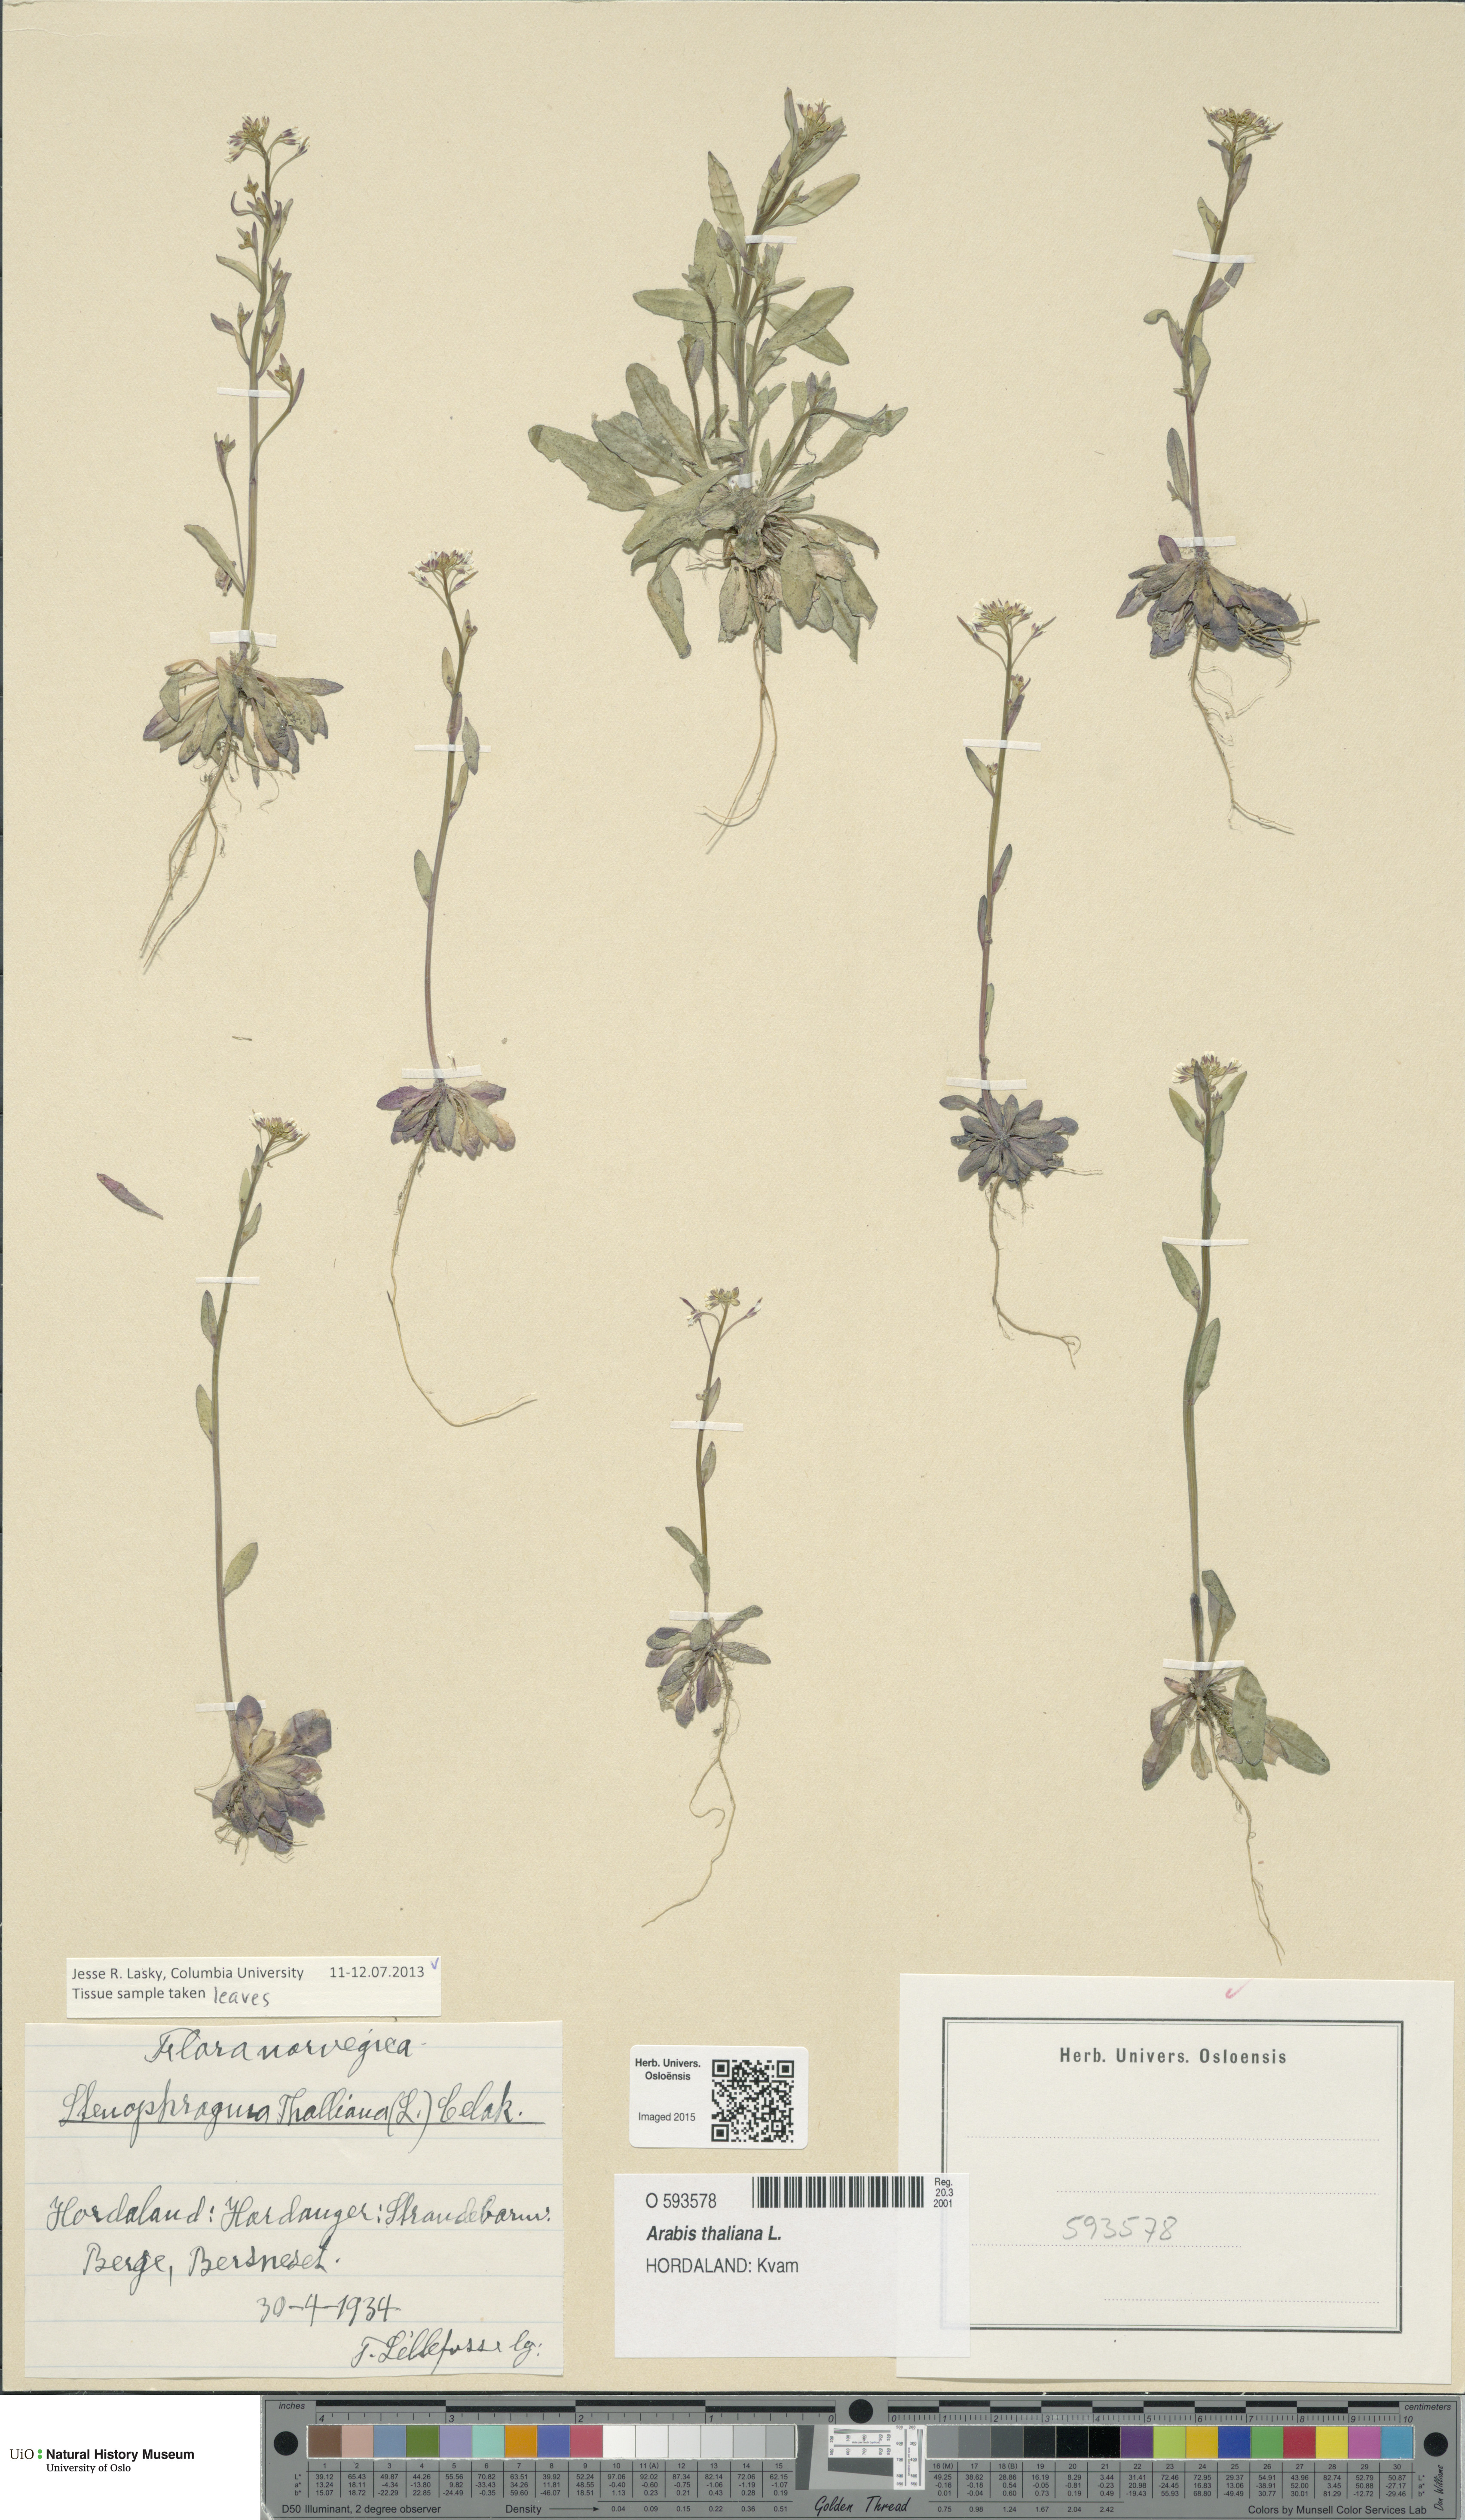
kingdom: Plantae
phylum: Tracheophyta
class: Magnoliopsida
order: Brassicales
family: Brassicaceae
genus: Arabidopsis
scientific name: Arabidopsis thaliana
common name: Thale cress
